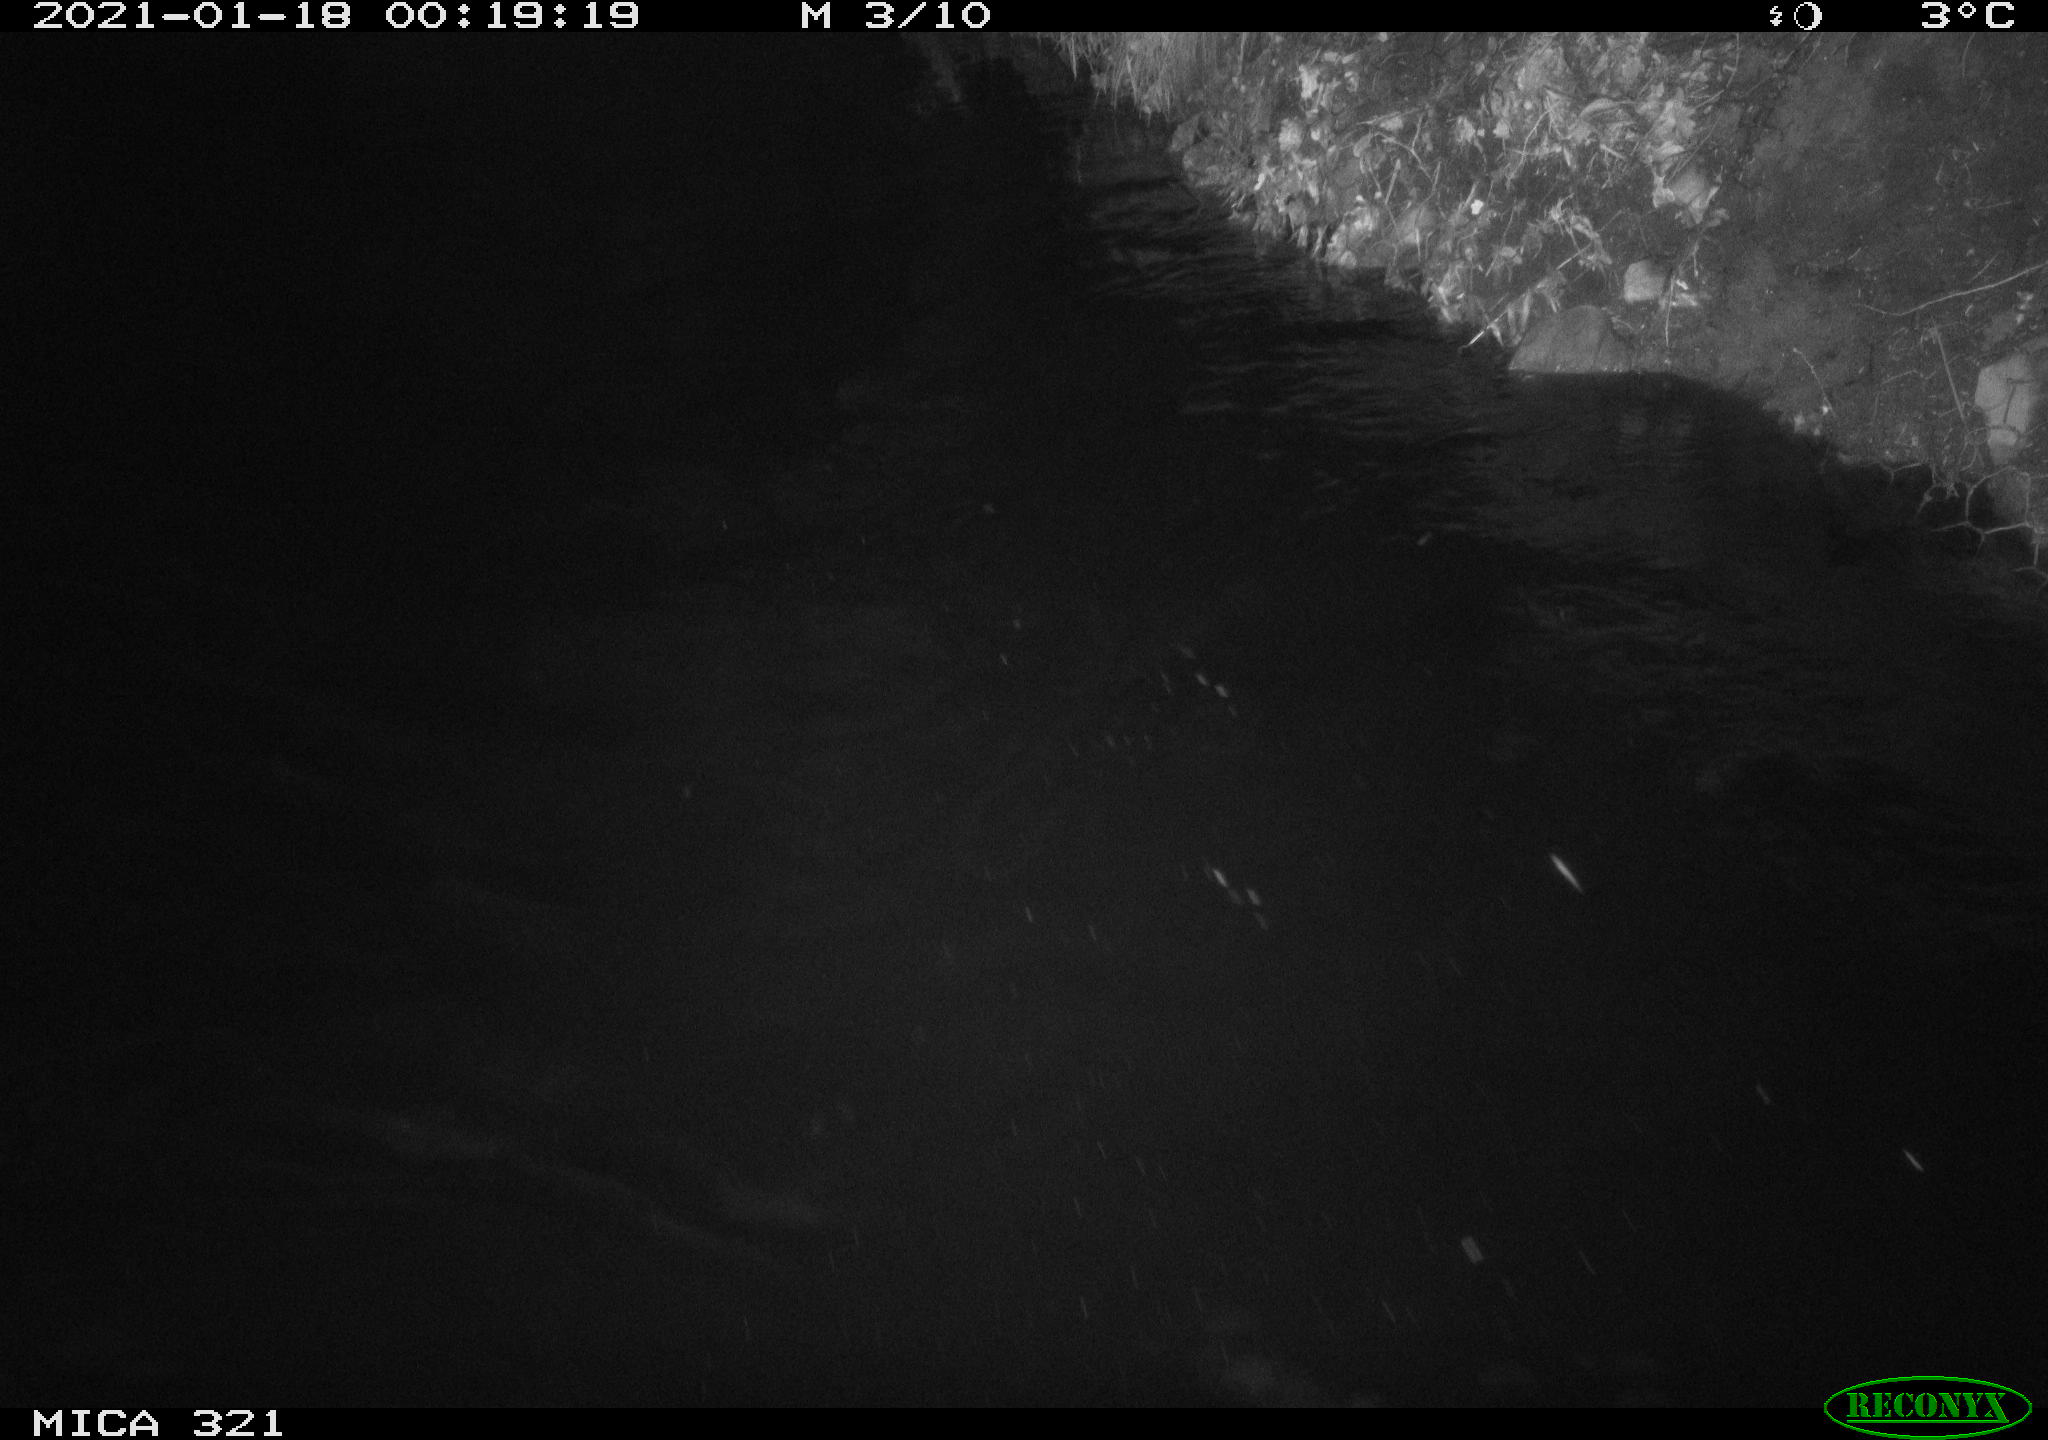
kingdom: Animalia
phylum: Chordata
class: Aves
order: Anseriformes
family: Anatidae
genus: Anas
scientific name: Anas platyrhynchos
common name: Mallard
